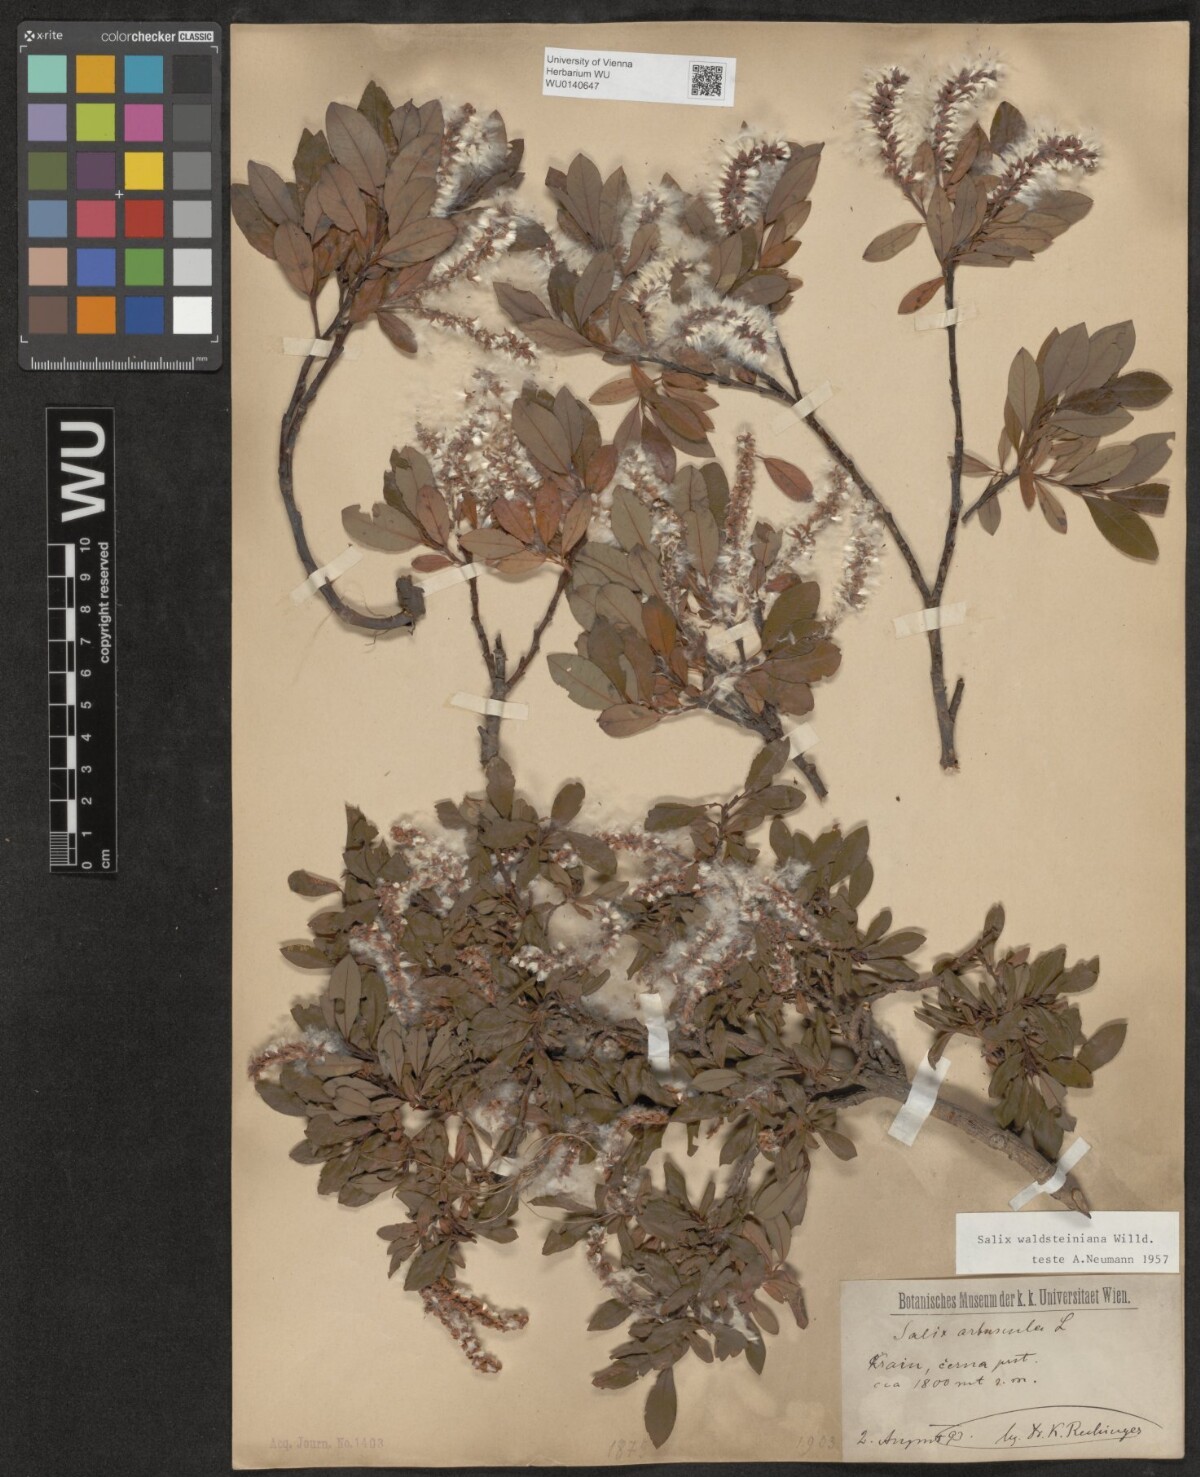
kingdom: Plantae
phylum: Tracheophyta
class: Magnoliopsida
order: Malpighiales
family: Salicaceae
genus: Salix
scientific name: Salix waldsteiniana
